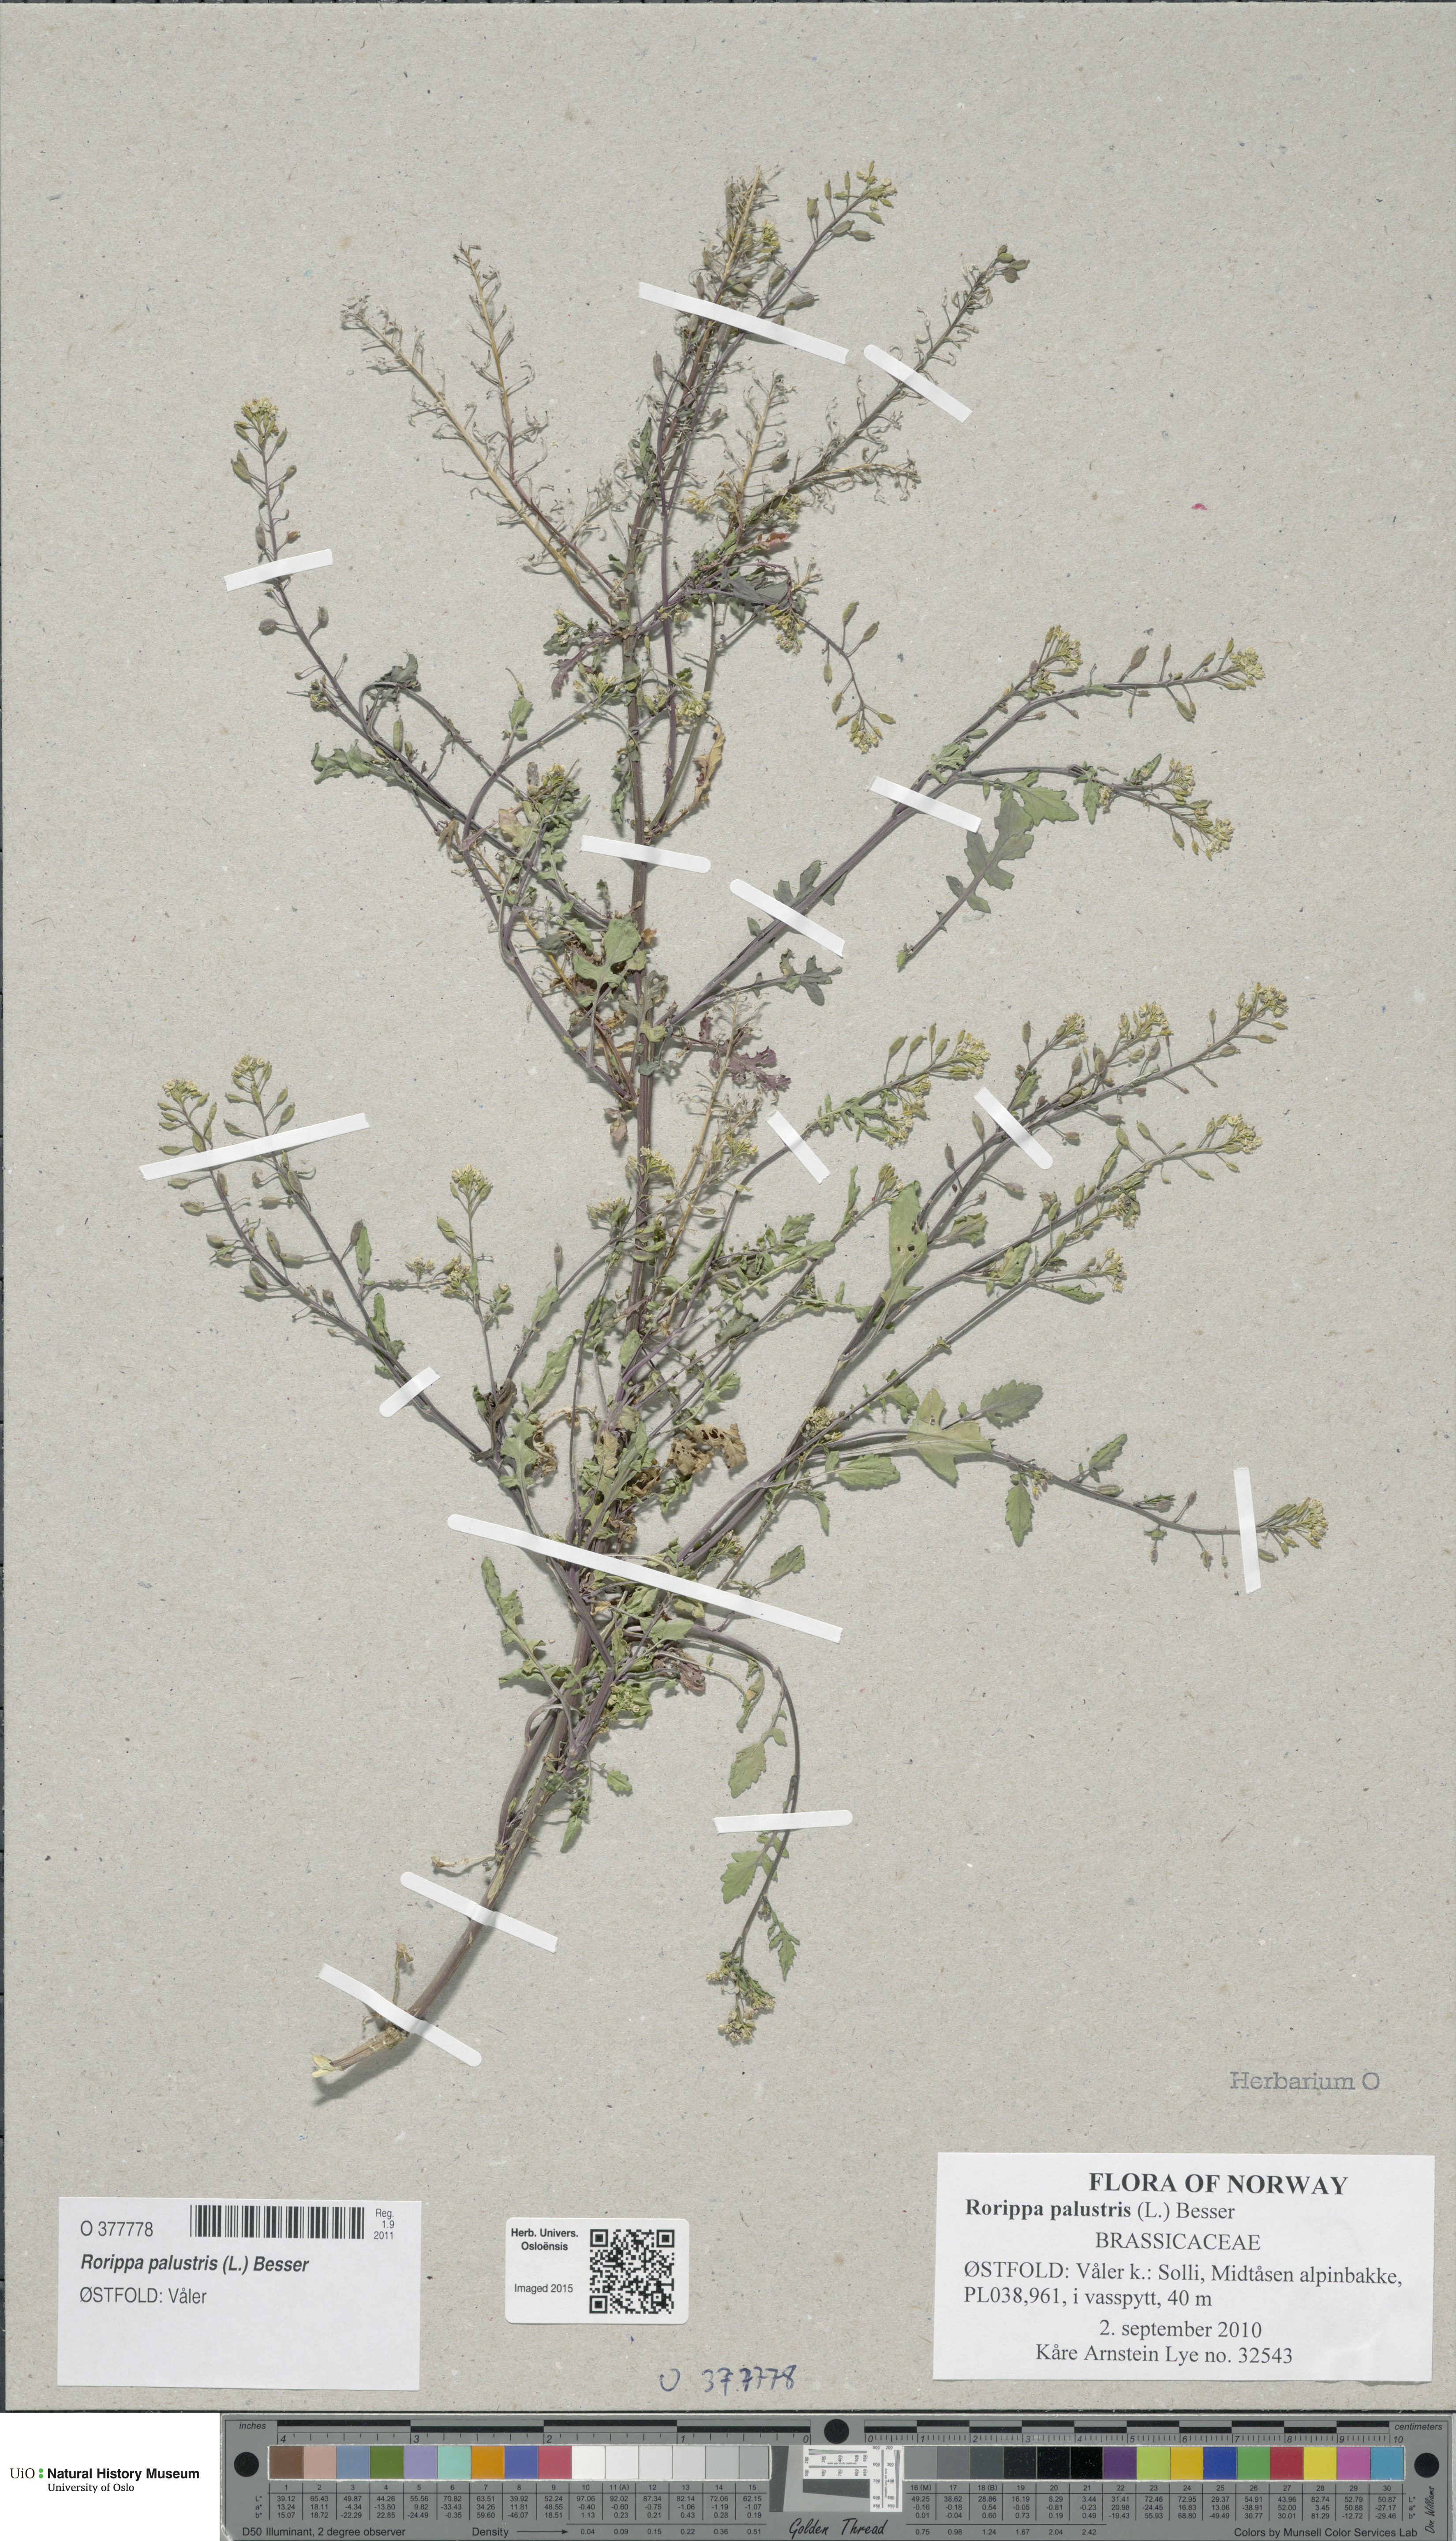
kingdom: Plantae
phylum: Tracheophyta
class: Magnoliopsida
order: Brassicales
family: Brassicaceae
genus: Rorippa
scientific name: Rorippa palustris
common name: Marsh yellow-cress
